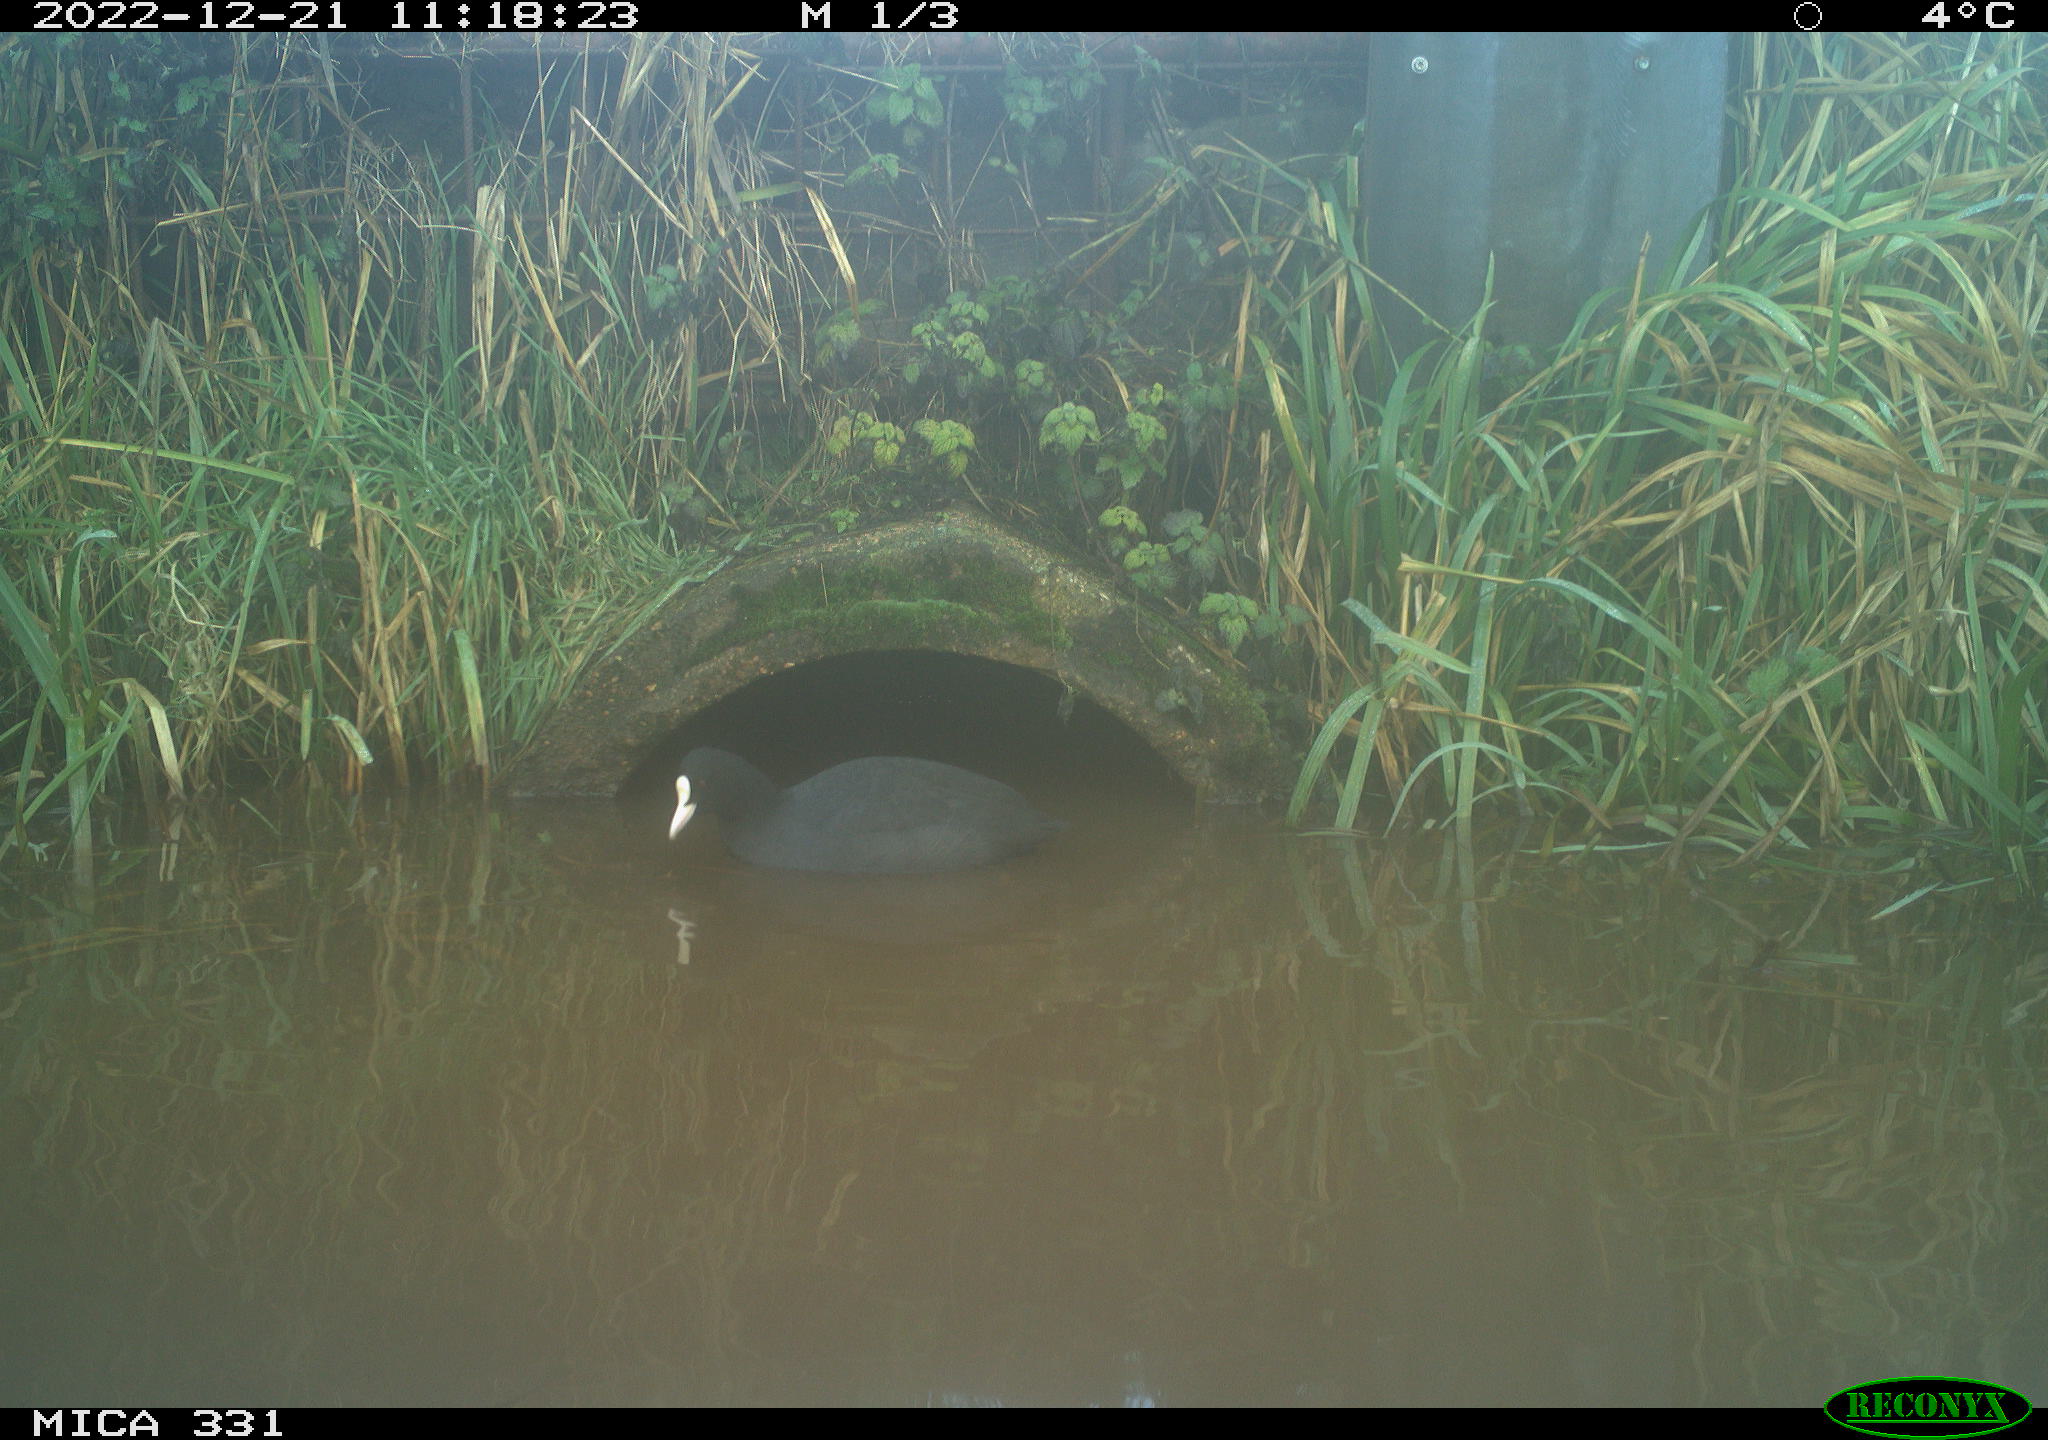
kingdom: Animalia
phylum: Chordata
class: Aves
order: Gruiformes
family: Rallidae
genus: Fulica
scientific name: Fulica atra
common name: Eurasian coot
